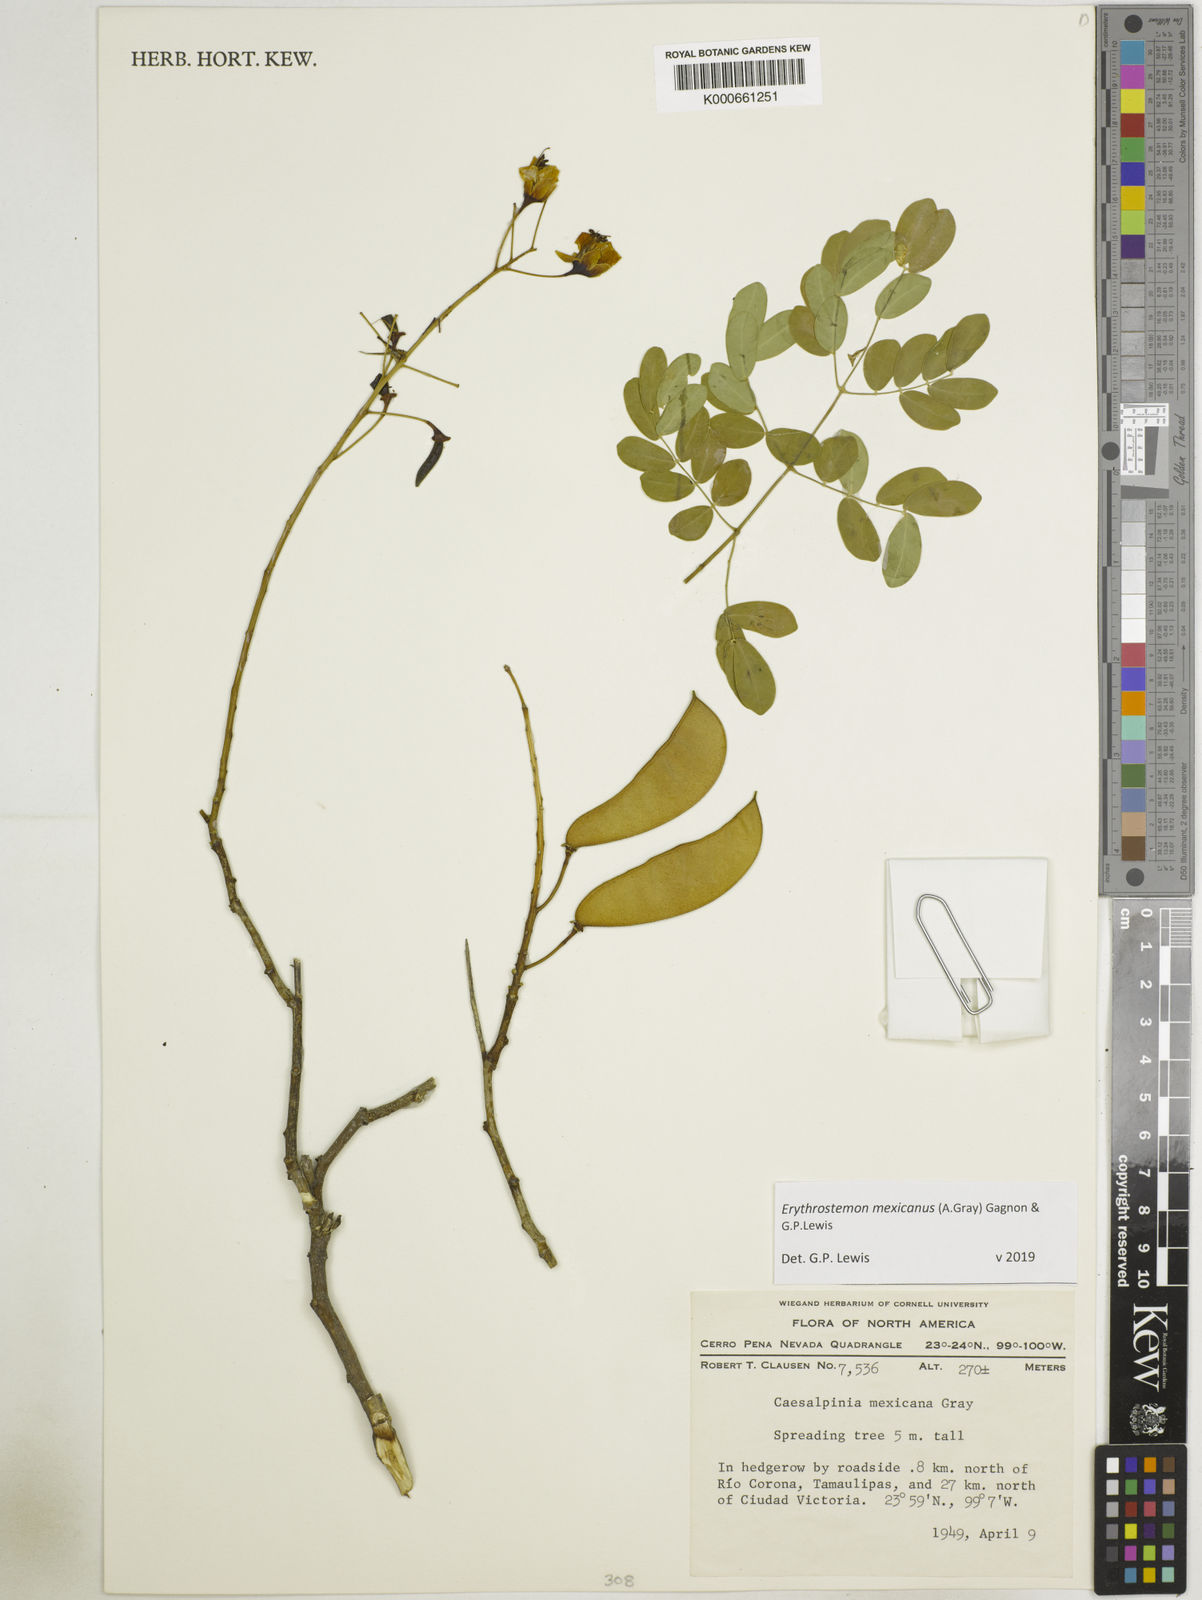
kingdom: Plantae
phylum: Tracheophyta
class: Magnoliopsida
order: Fabales
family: Fabaceae
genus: Erythrostemon
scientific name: Erythrostemon mexicanus
